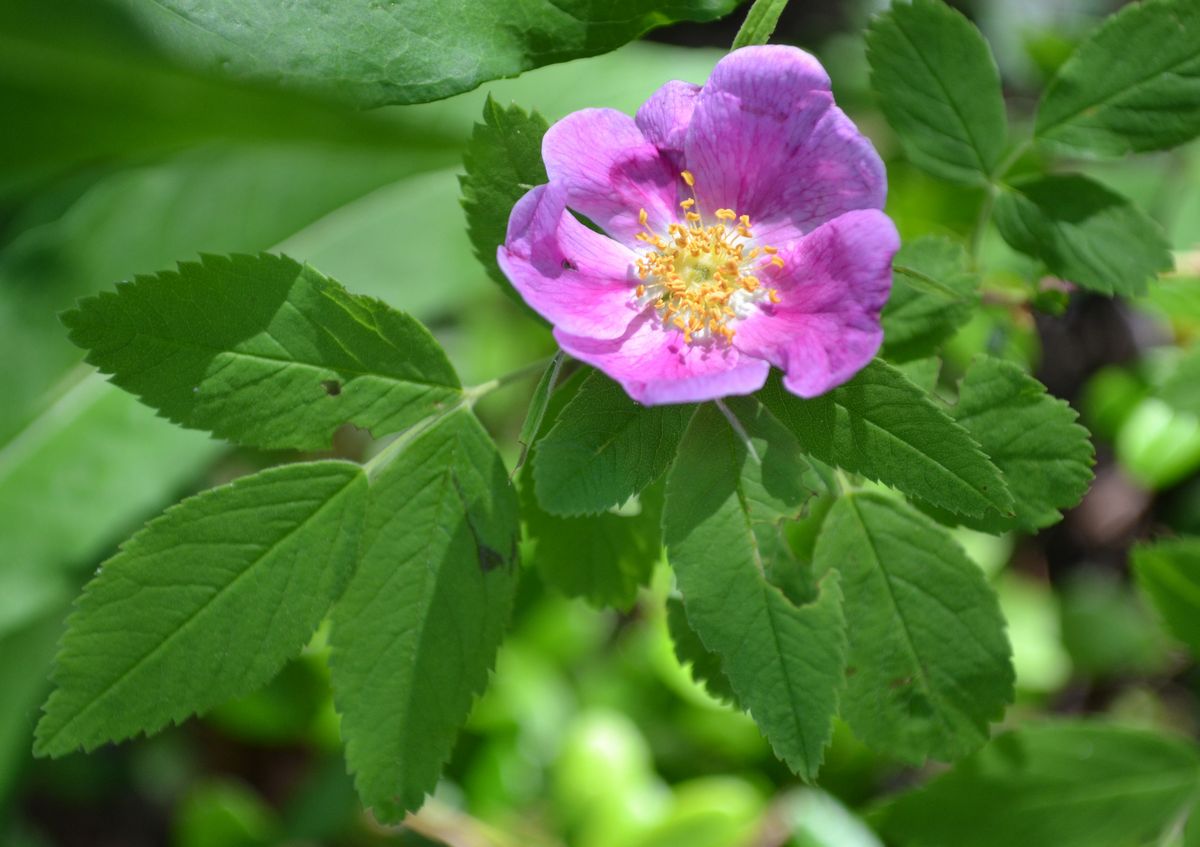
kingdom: Plantae
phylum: Tracheophyta
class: Magnoliopsida
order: Rosales
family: Rosaceae
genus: Rosa
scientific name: Rosa majalis
